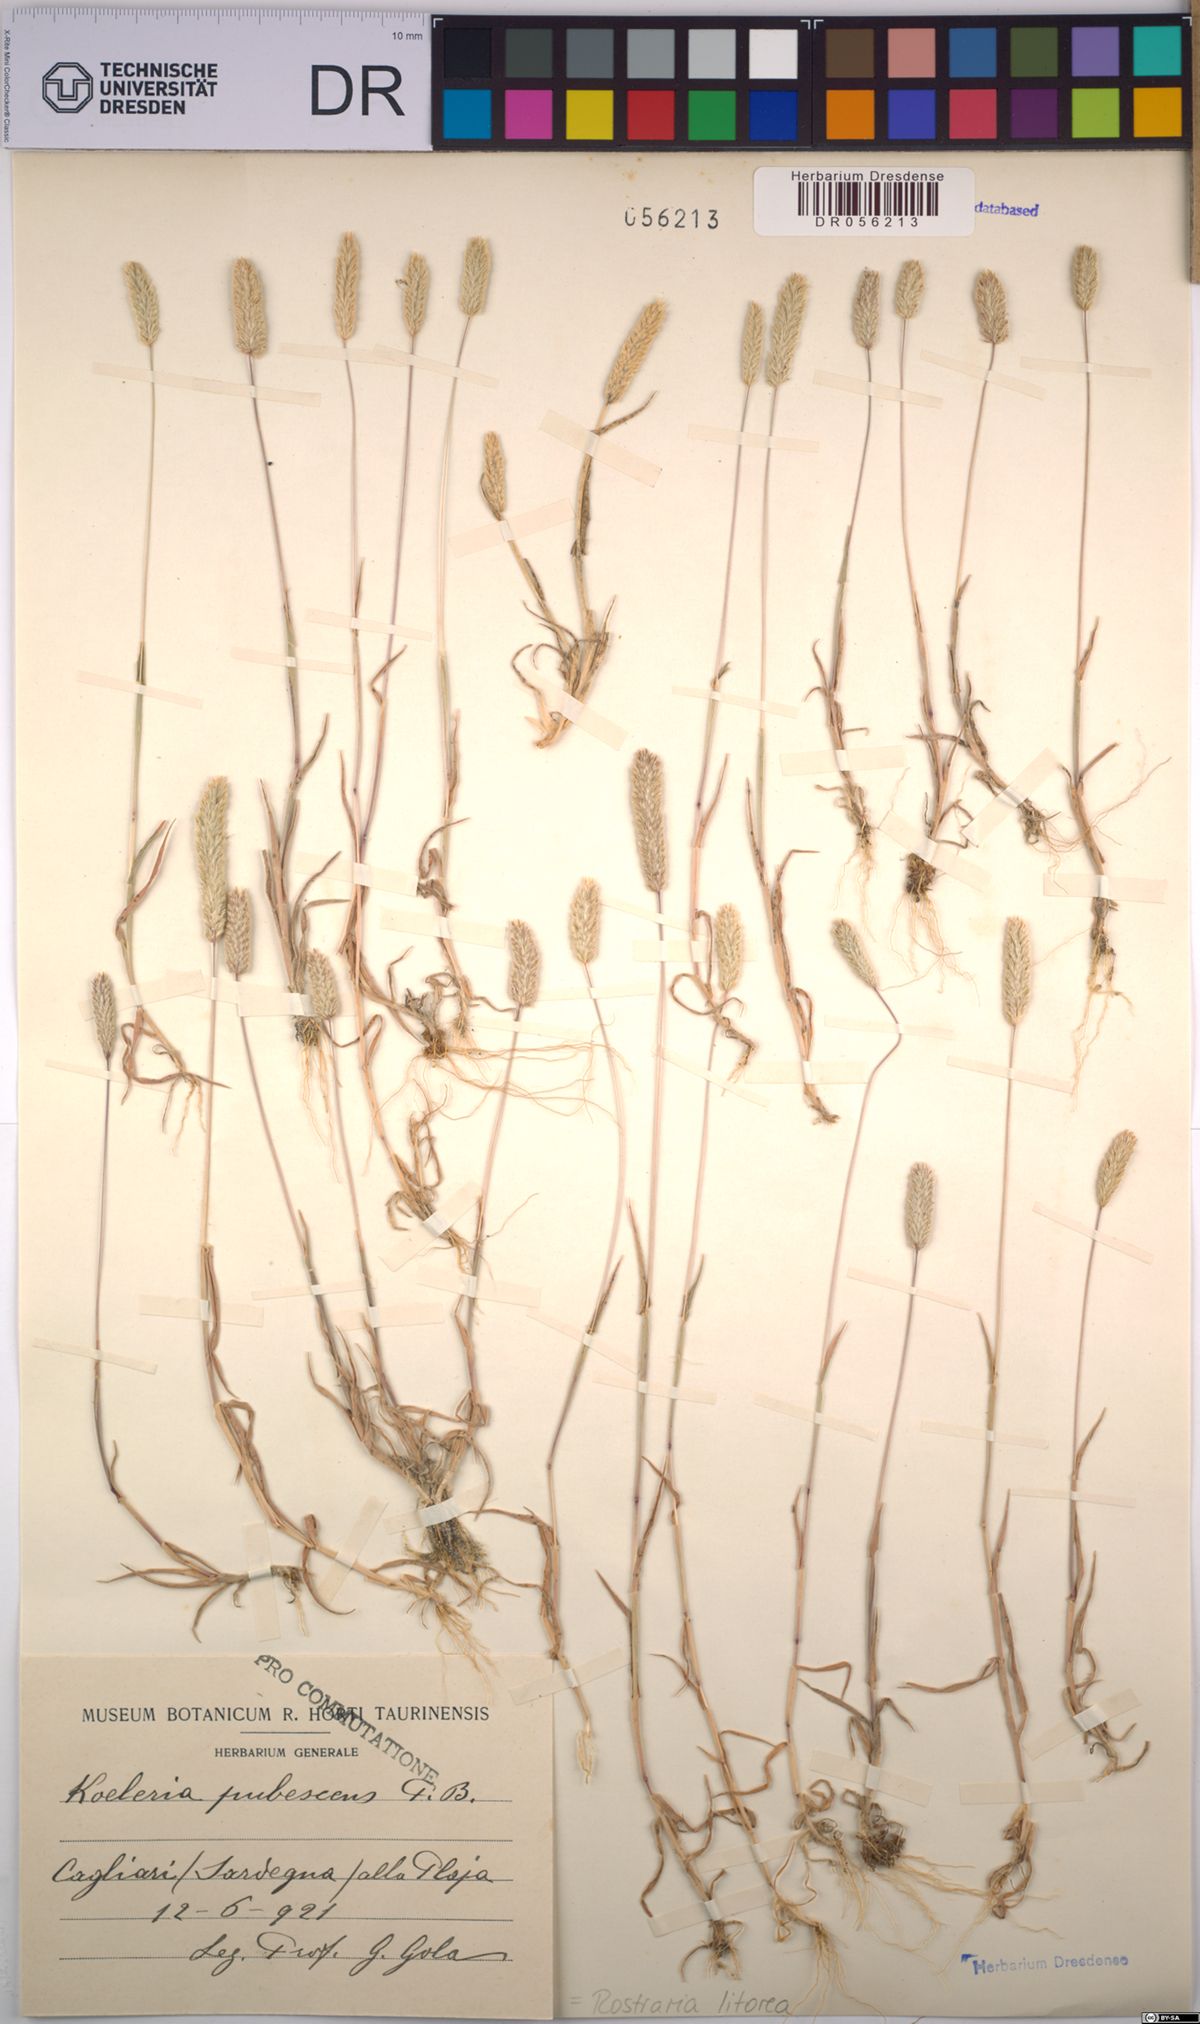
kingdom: Plantae
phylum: Tracheophyta
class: Liliopsida
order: Poales
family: Poaceae
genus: Rostraria
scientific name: Rostraria litorea
